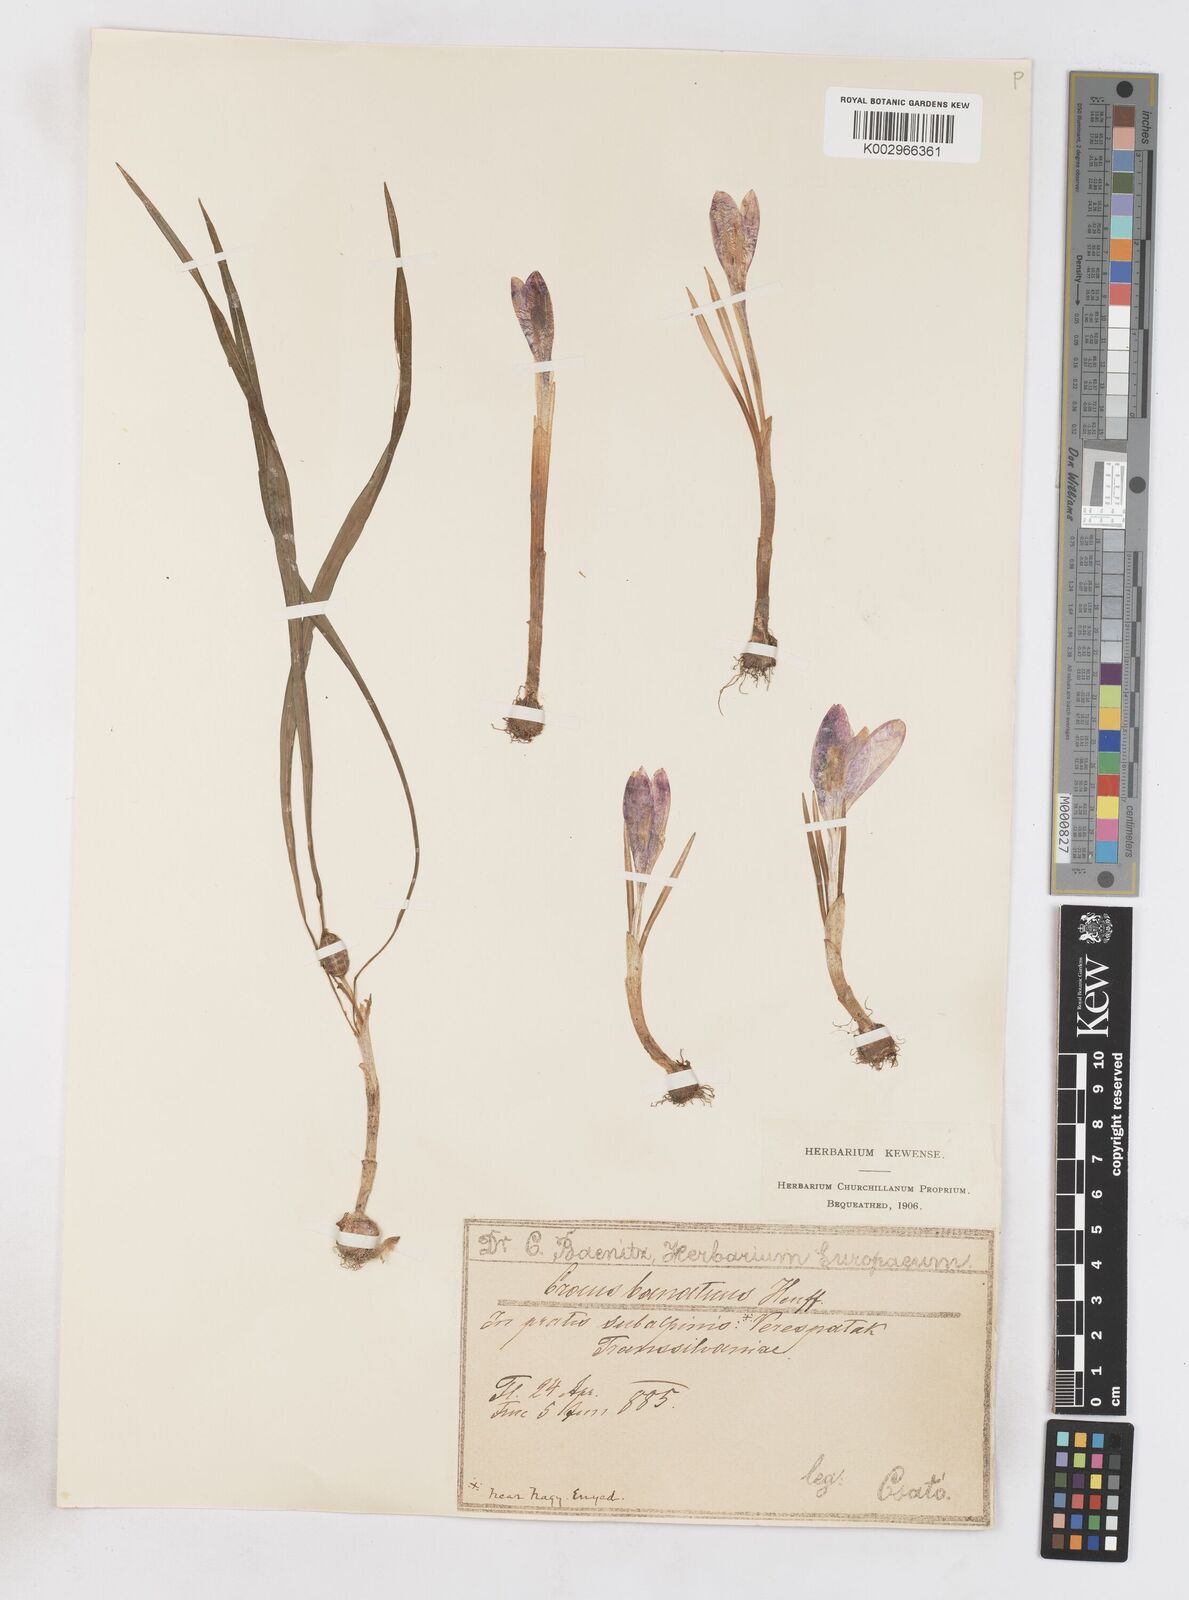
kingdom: Plantae
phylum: Tracheophyta
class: Liliopsida
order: Asparagales
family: Iridaceae
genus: Crocus
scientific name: Crocus vernus
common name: Spring crocus
